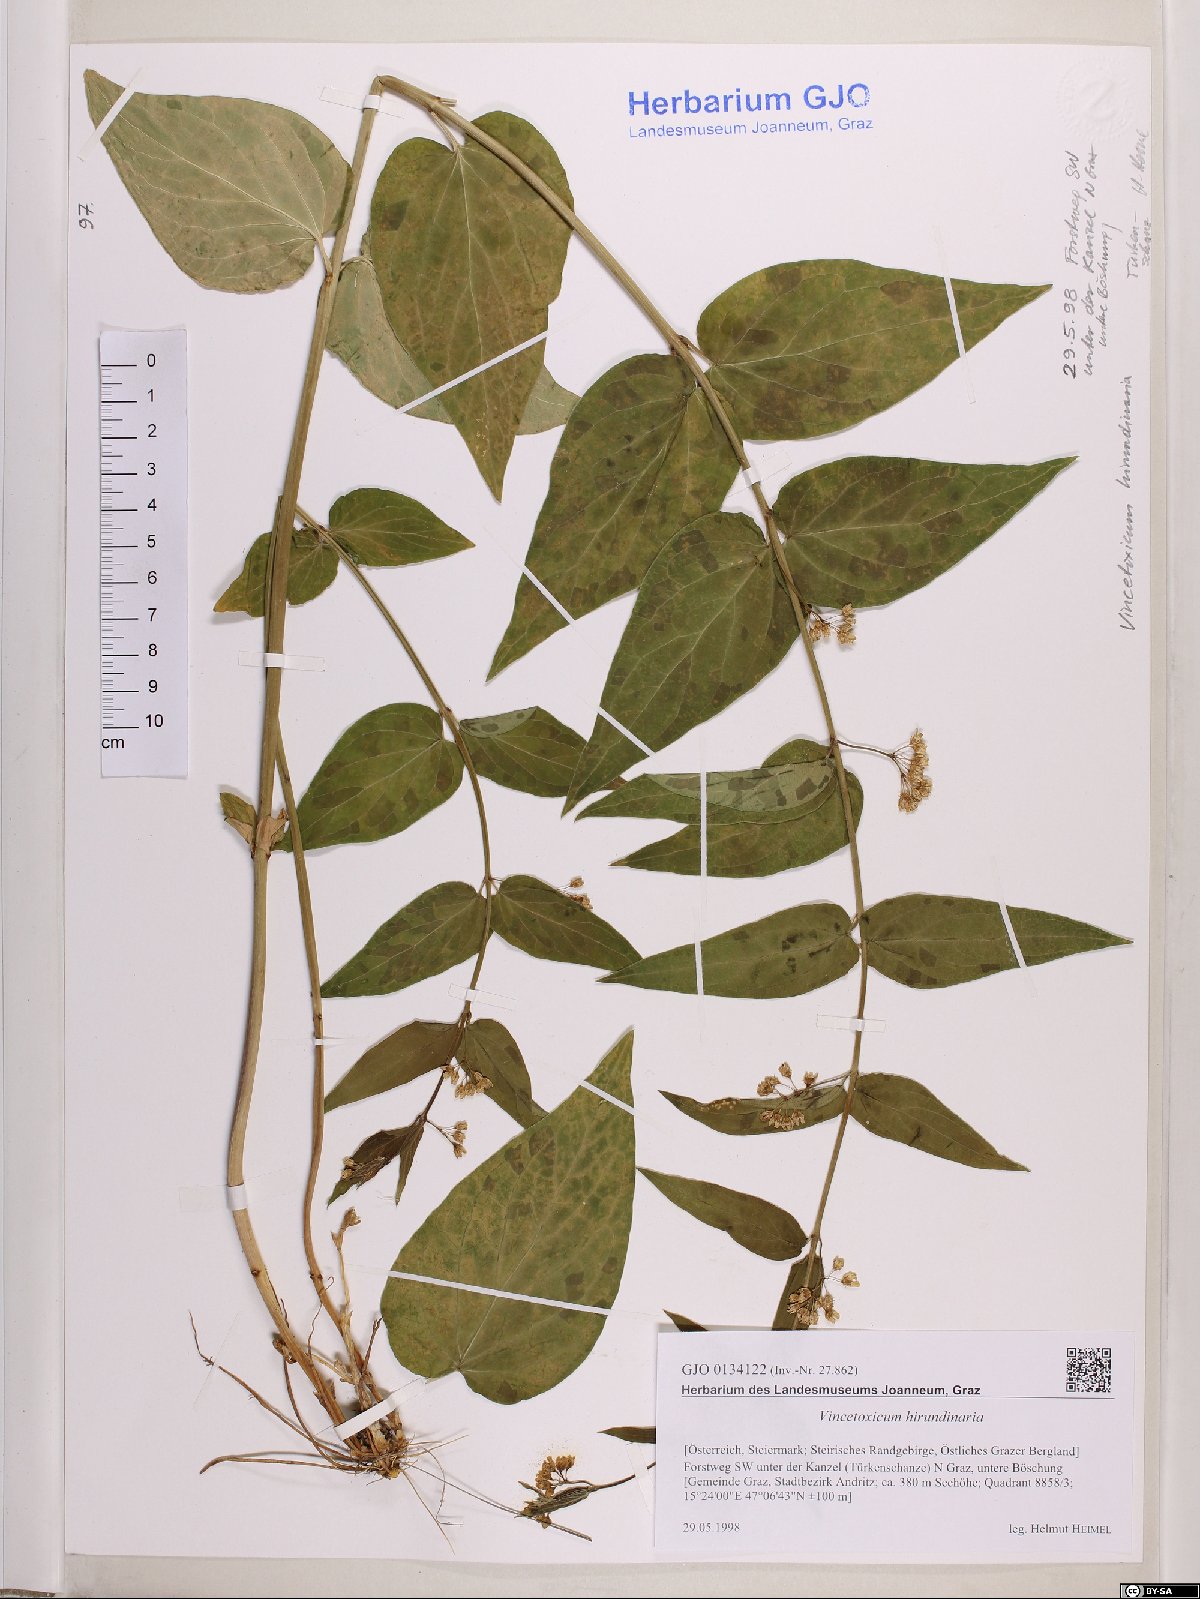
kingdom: Plantae
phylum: Tracheophyta
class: Magnoliopsida
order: Gentianales
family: Apocynaceae
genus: Vincetoxicum
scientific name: Vincetoxicum hirundinaria
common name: White swallowwort
